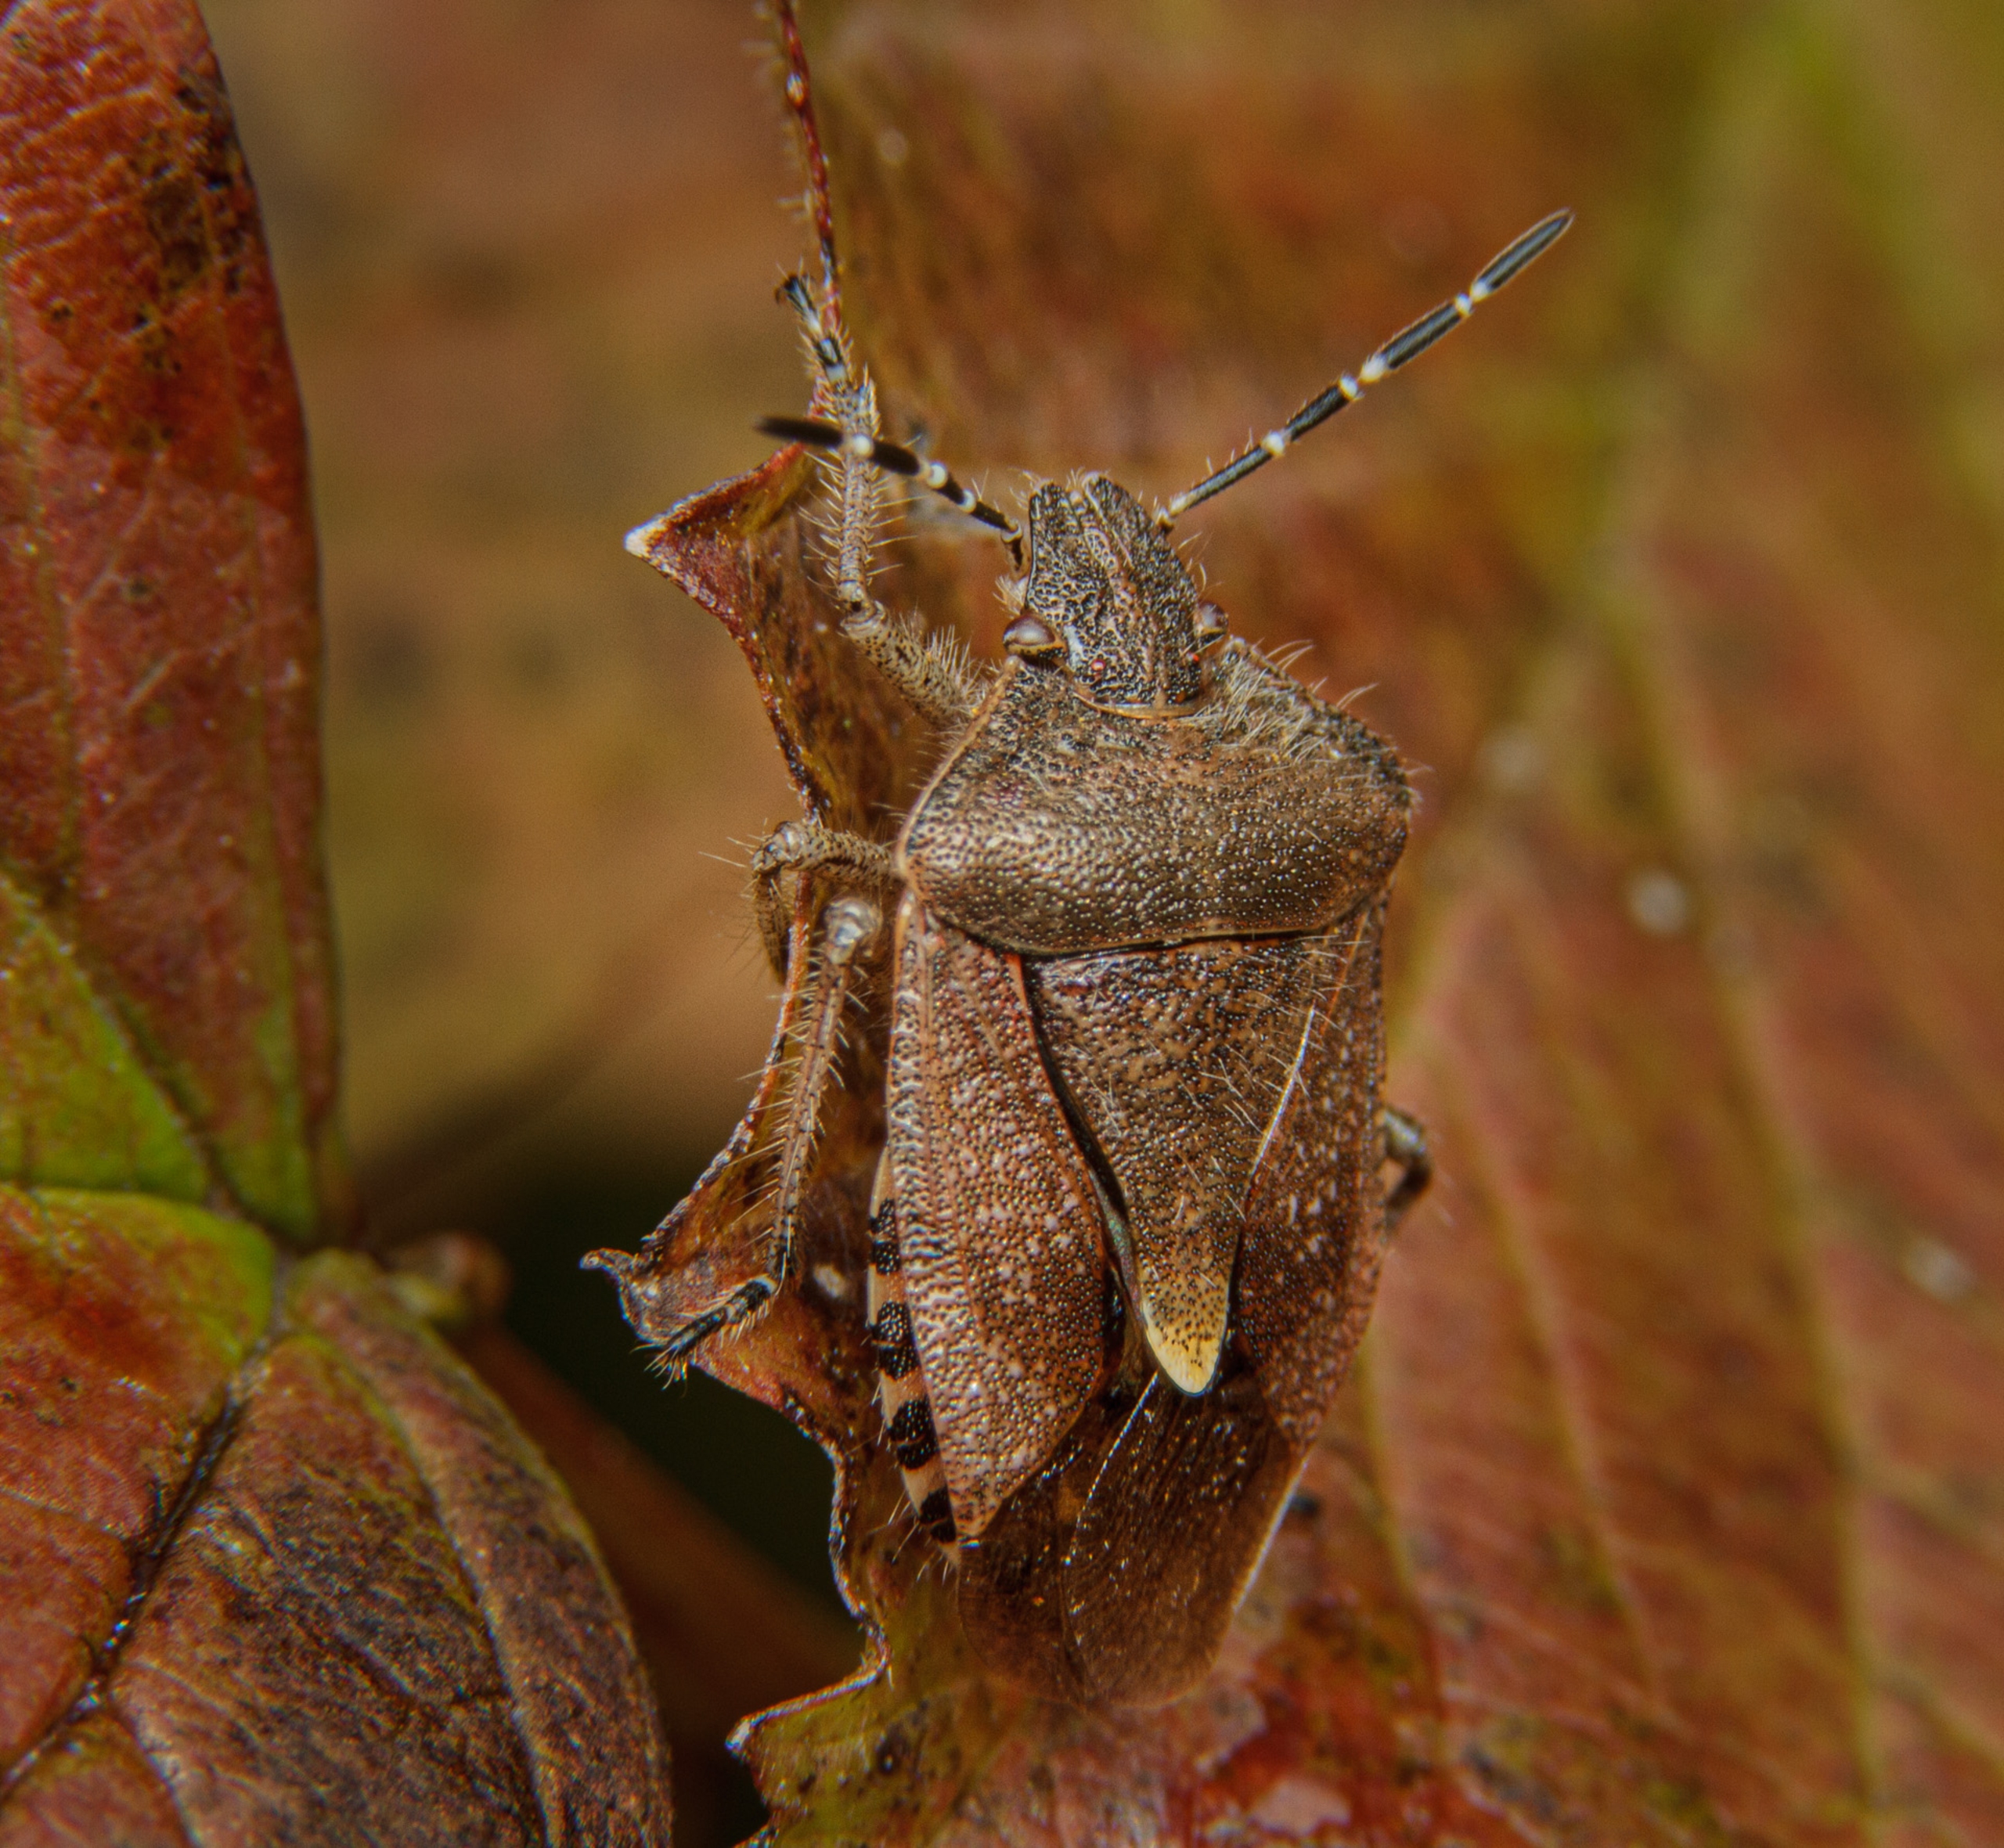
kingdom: Animalia
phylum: Arthropoda
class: Insecta
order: Hemiptera
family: Pentatomidae
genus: Dolycoris
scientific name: Dolycoris baccarum
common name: Almindelig bærtæge
